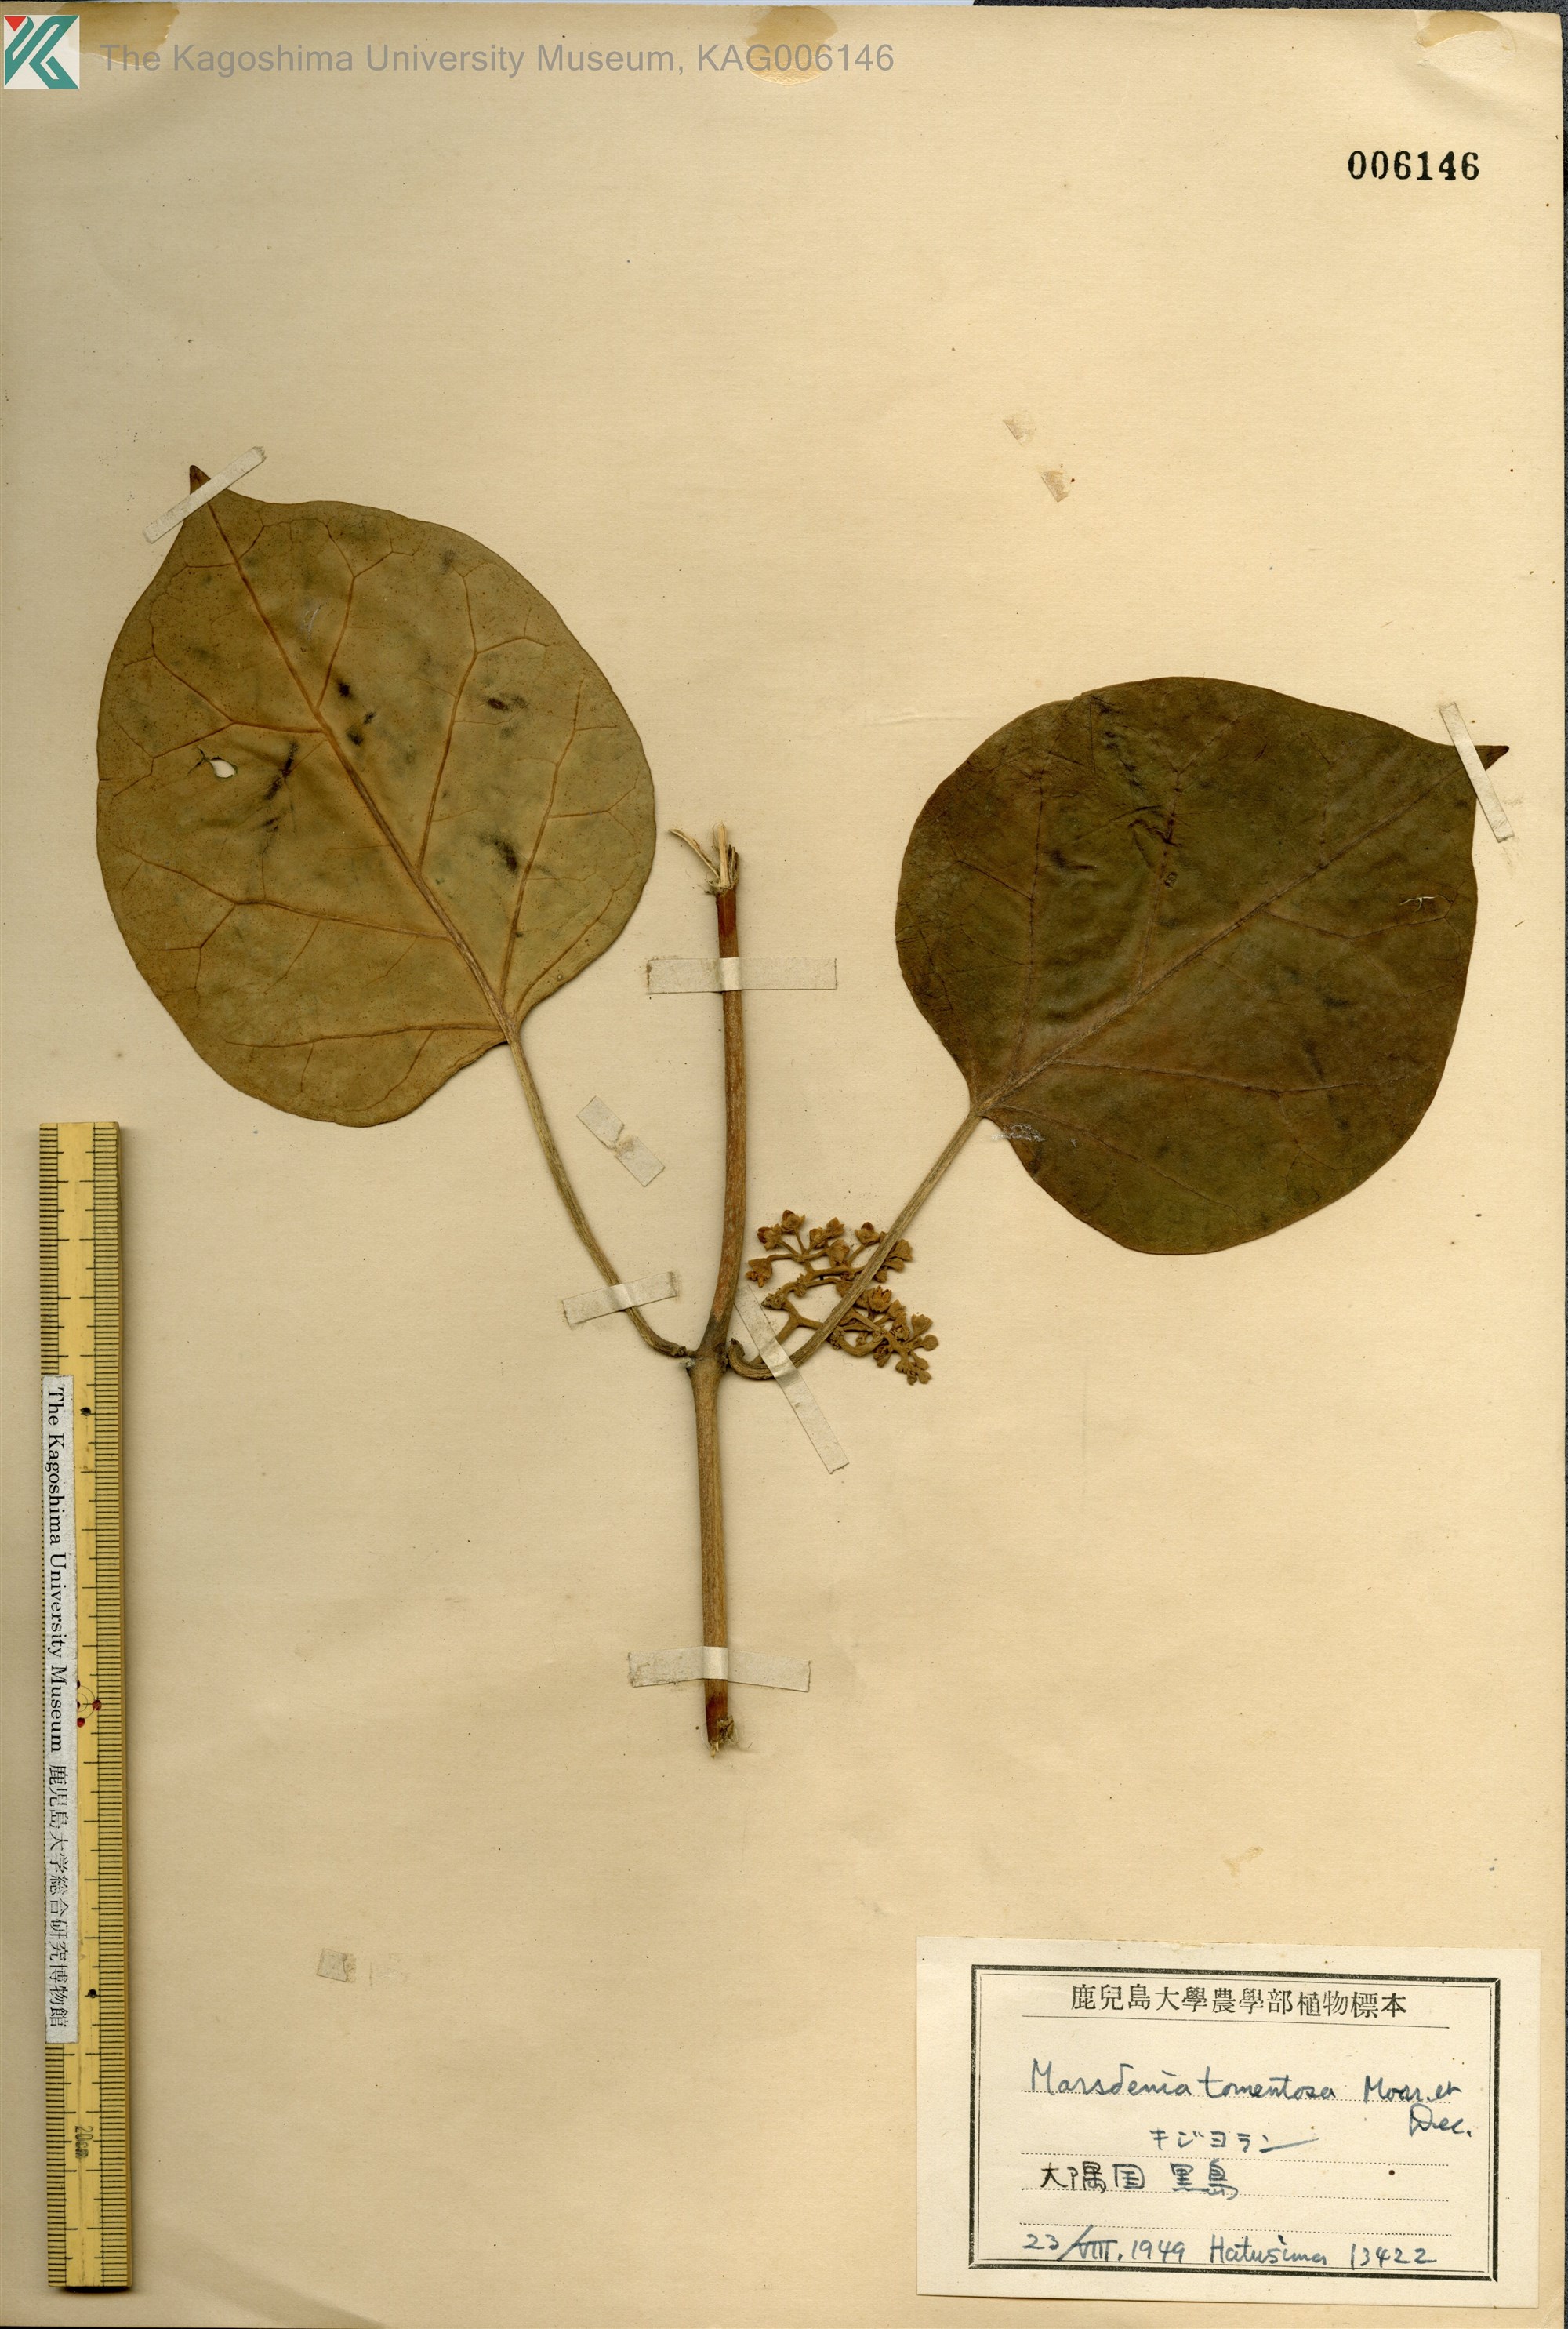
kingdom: Plantae
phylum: Tracheophyta
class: Magnoliopsida
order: Gentianales
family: Apocynaceae
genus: Sinomarsdenia
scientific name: Sinomarsdenia tomentosa
